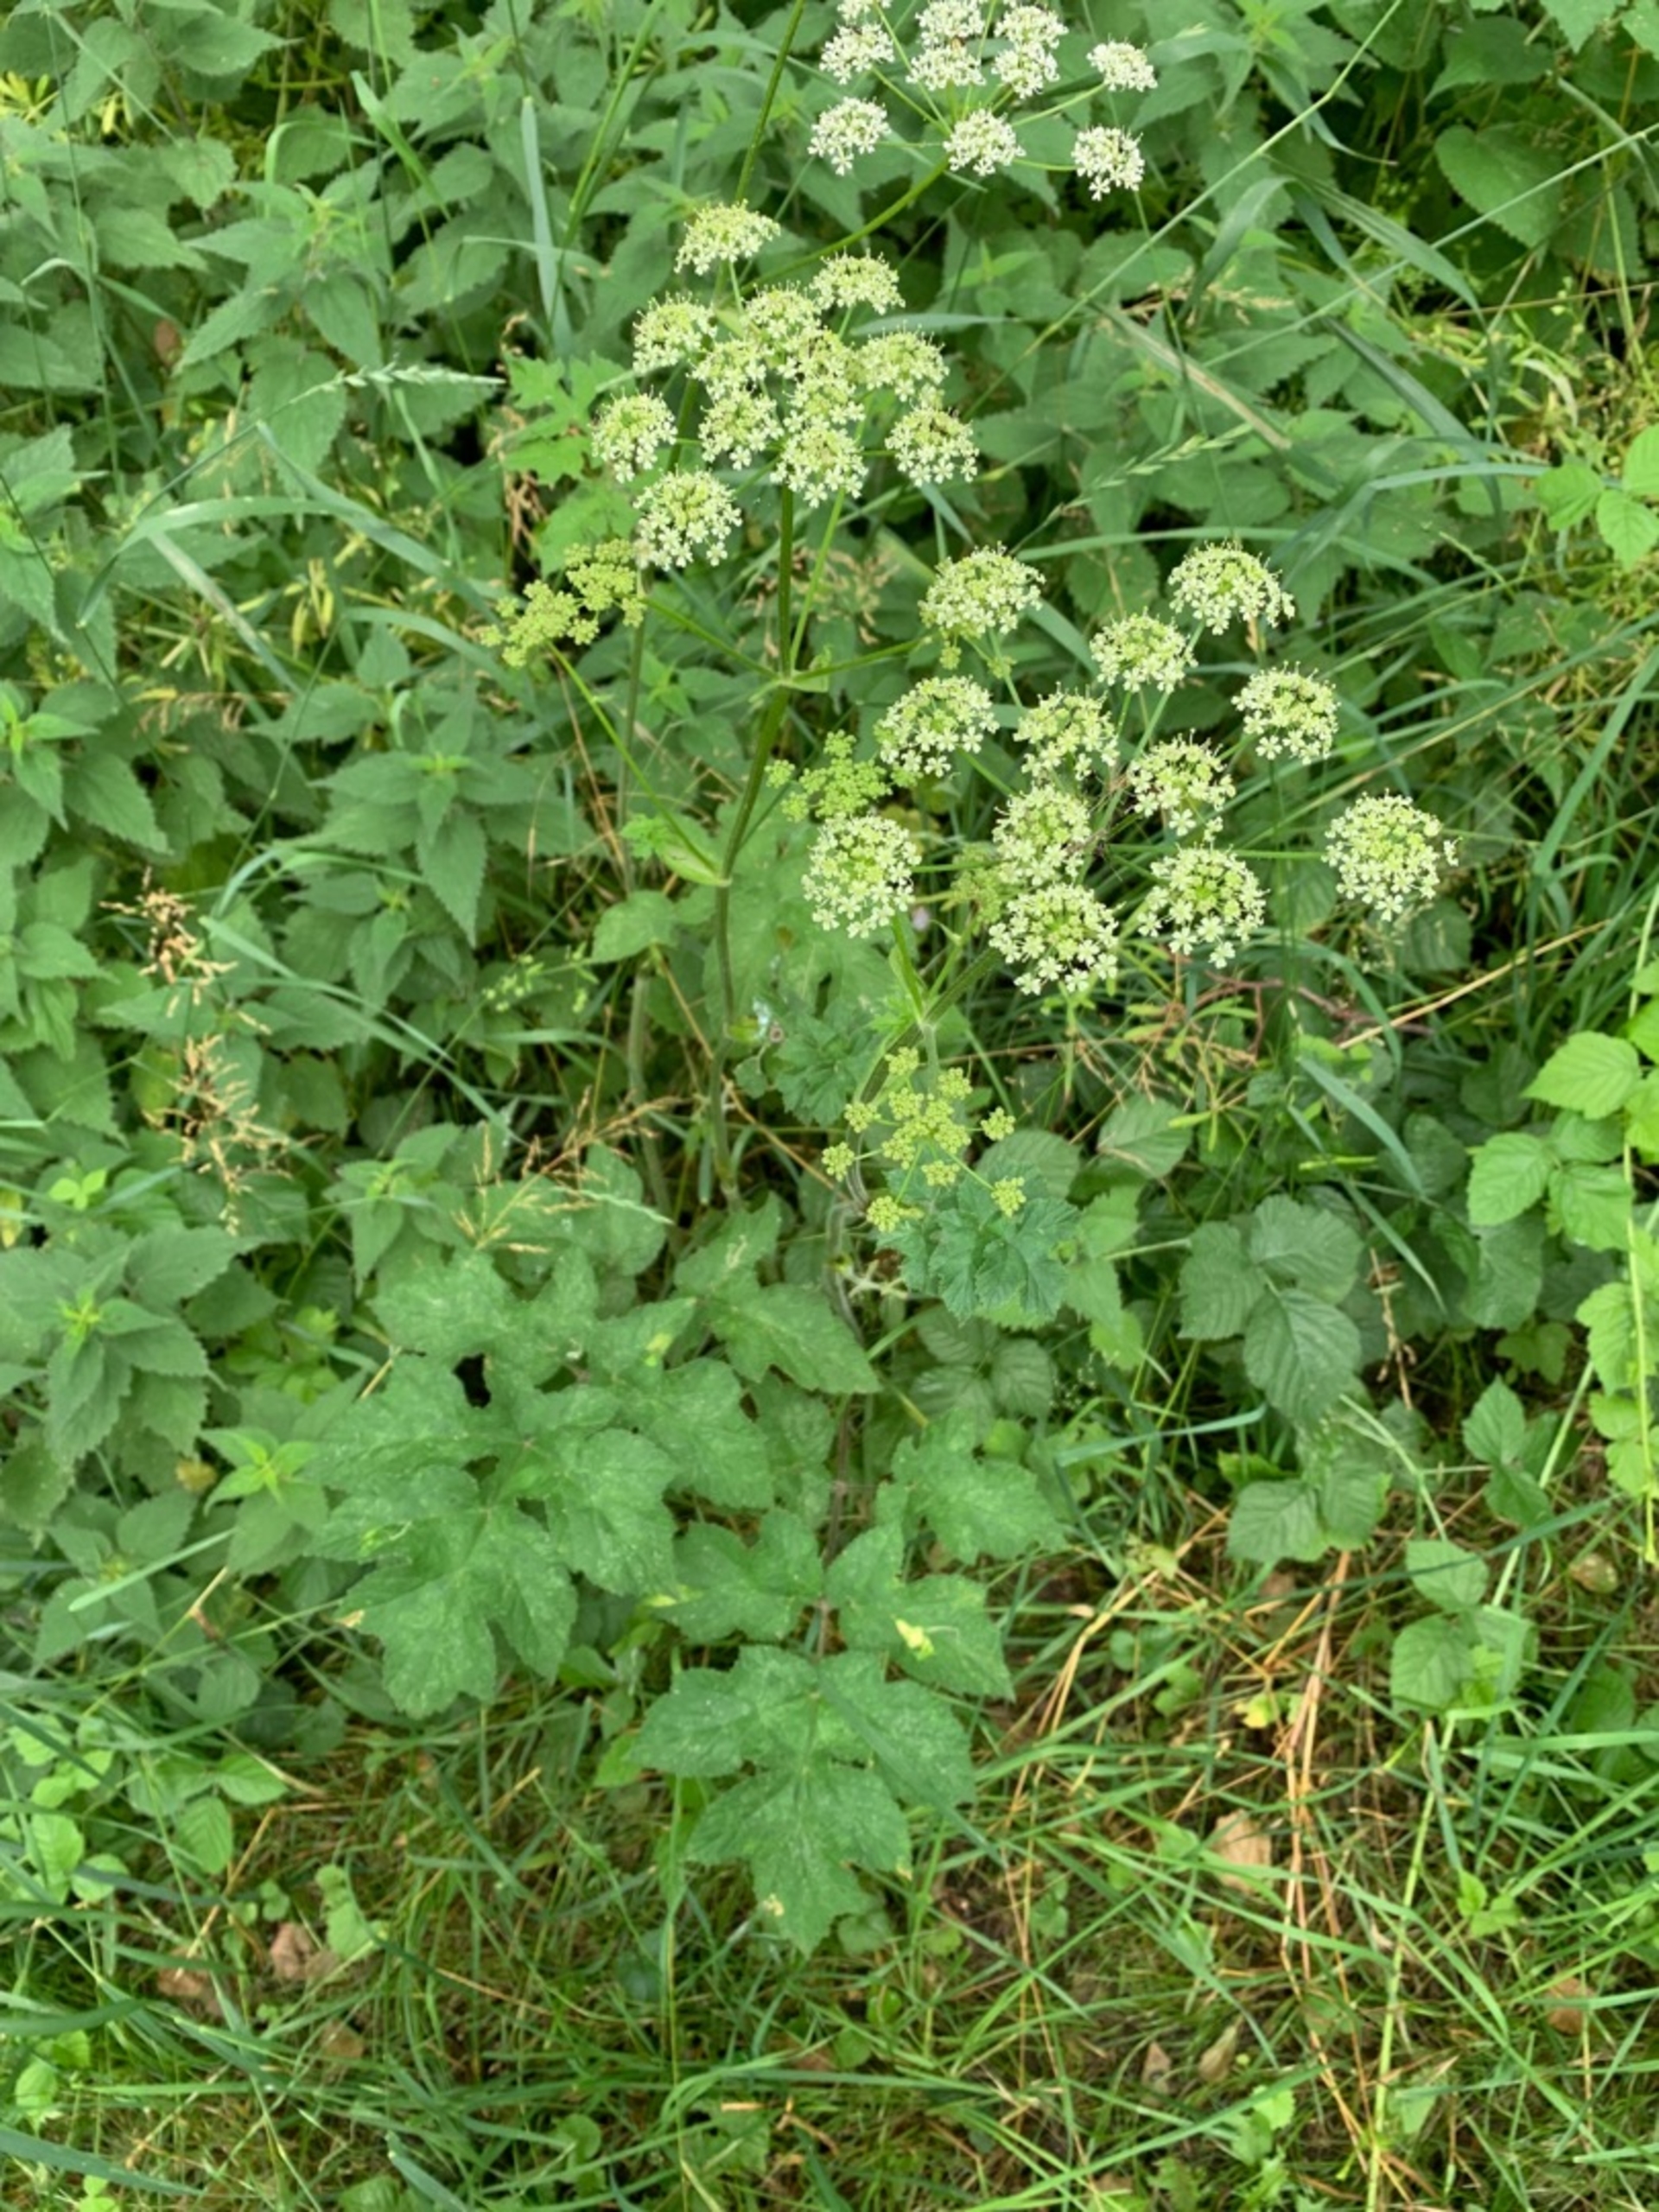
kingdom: Plantae
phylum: Tracheophyta
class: Magnoliopsida
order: Apiales
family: Apiaceae
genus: Heracleum
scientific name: Heracleum sphondylium
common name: Grønblomstret bjørneklo
